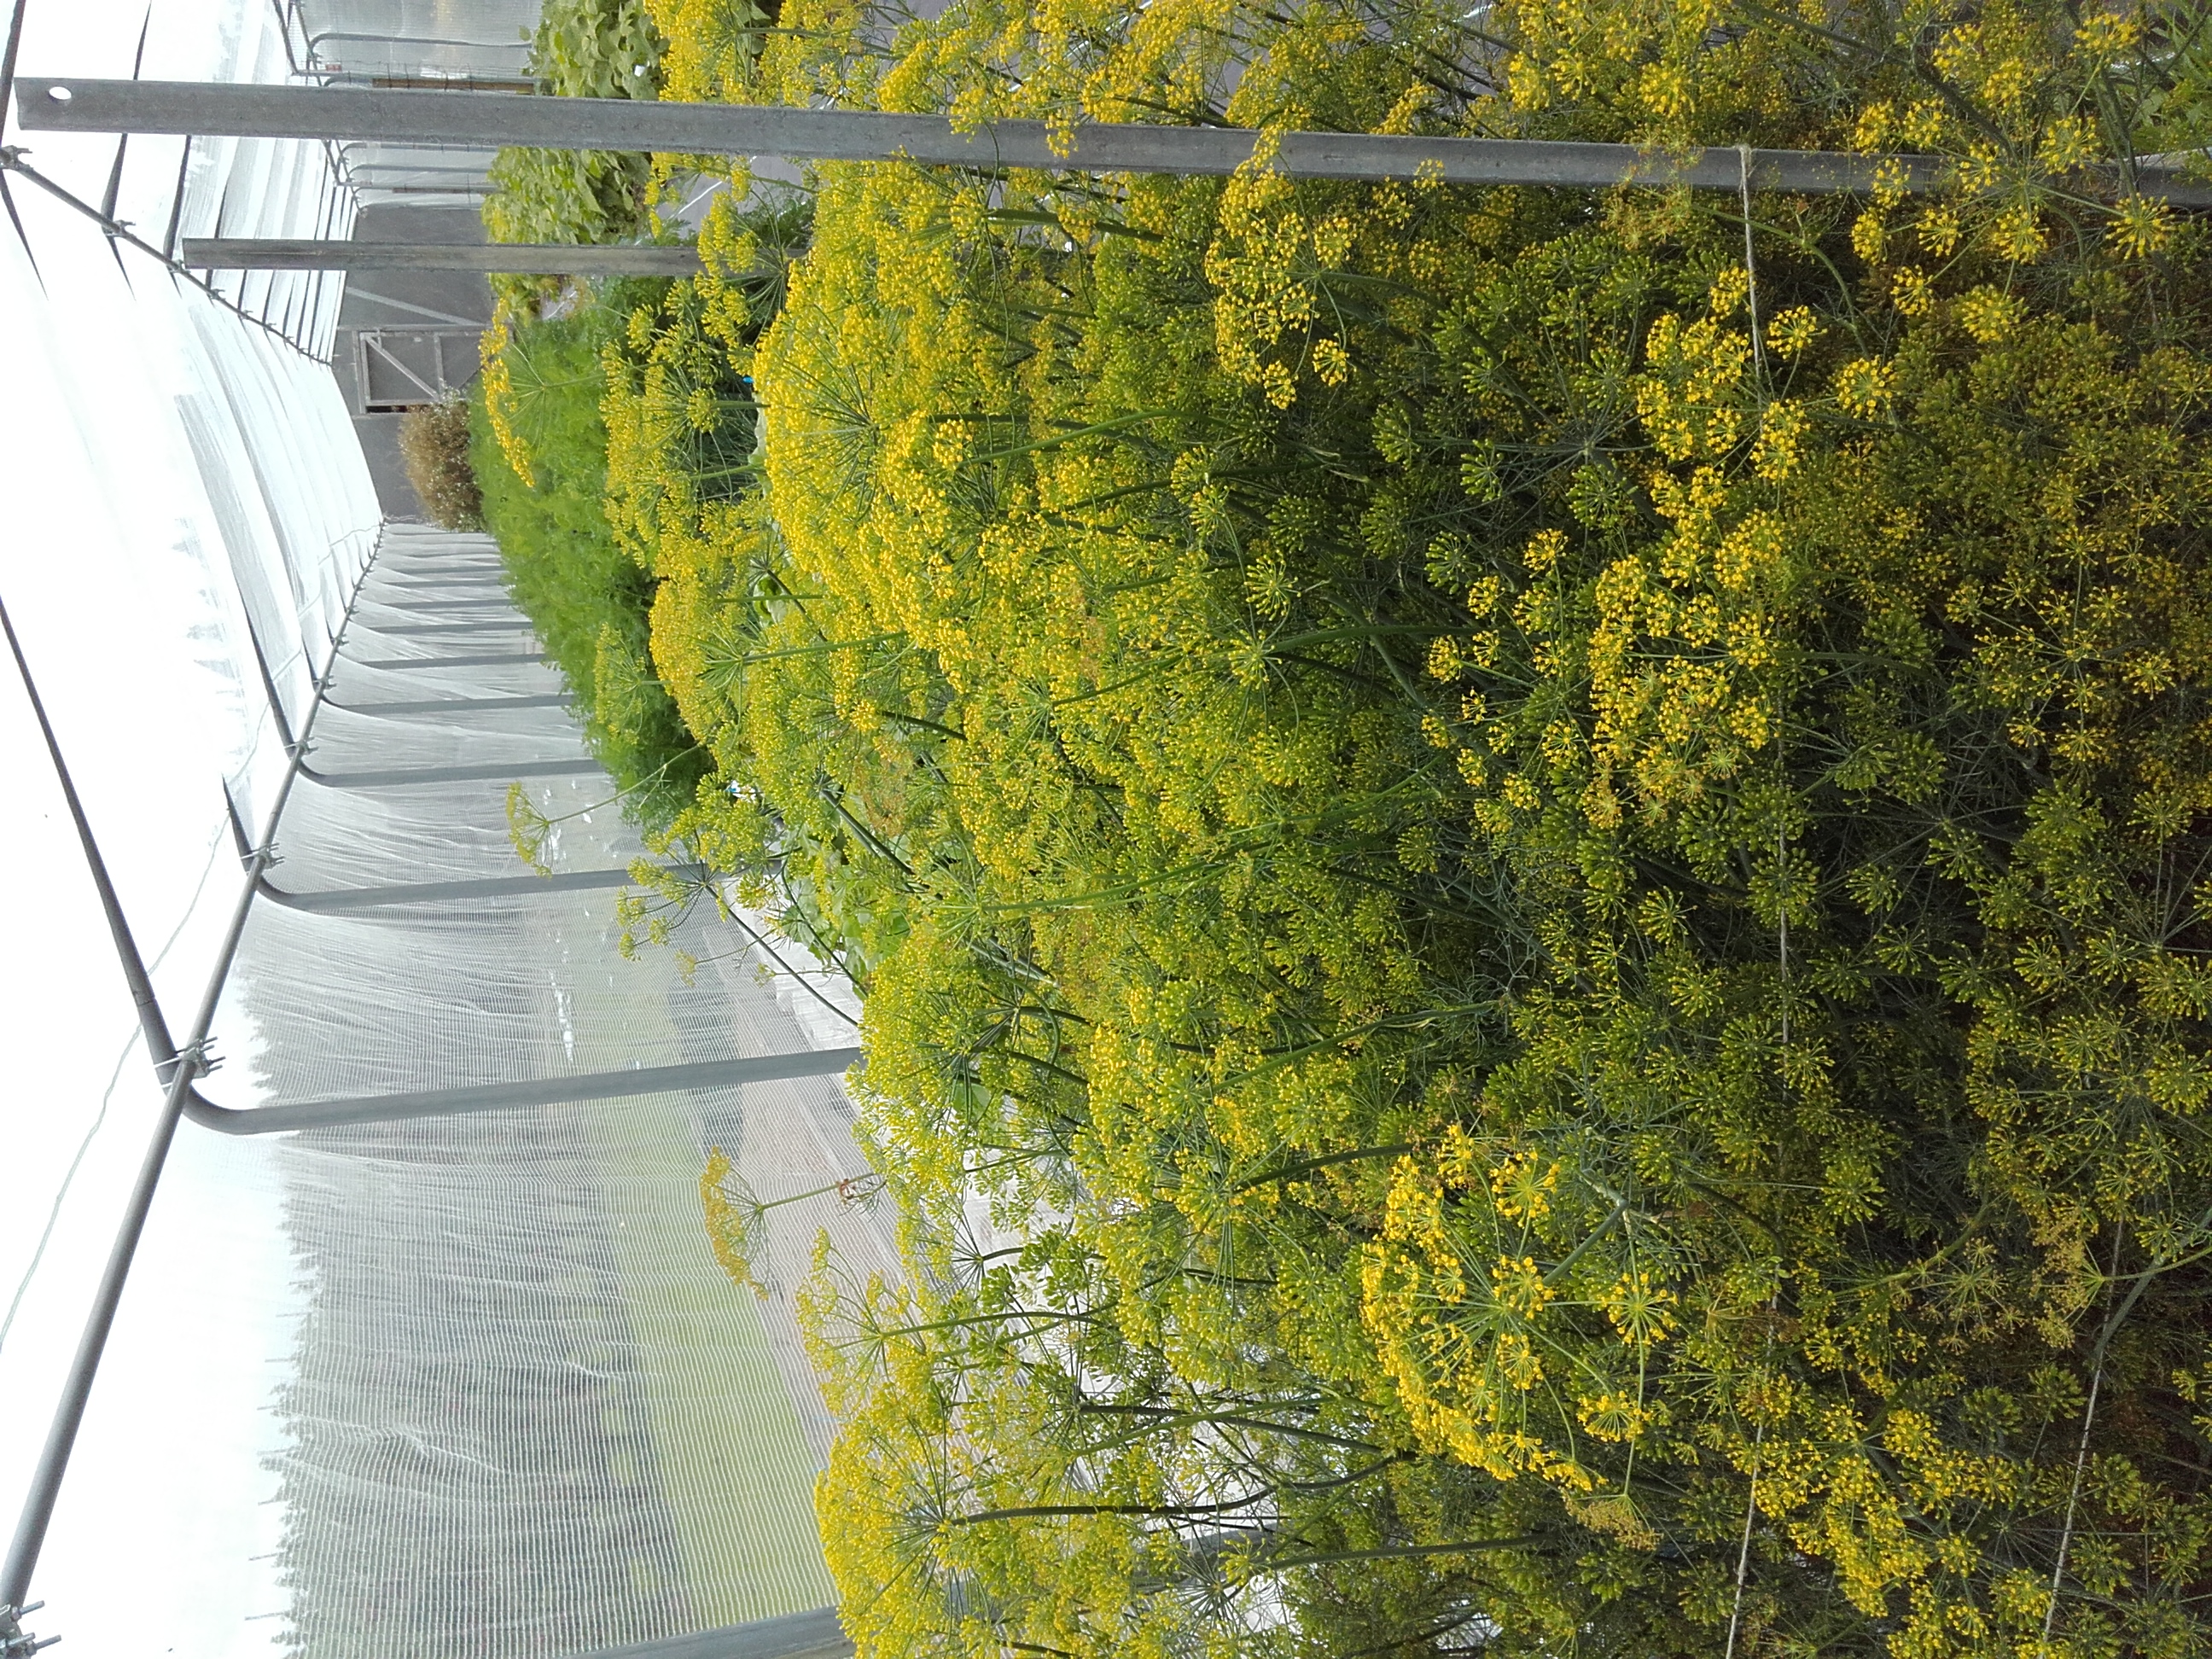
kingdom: Plantae
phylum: Tracheophyta
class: Magnoliopsida
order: Apiales
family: Apiaceae
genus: Anethum
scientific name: Anethum graveolens
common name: Dill
